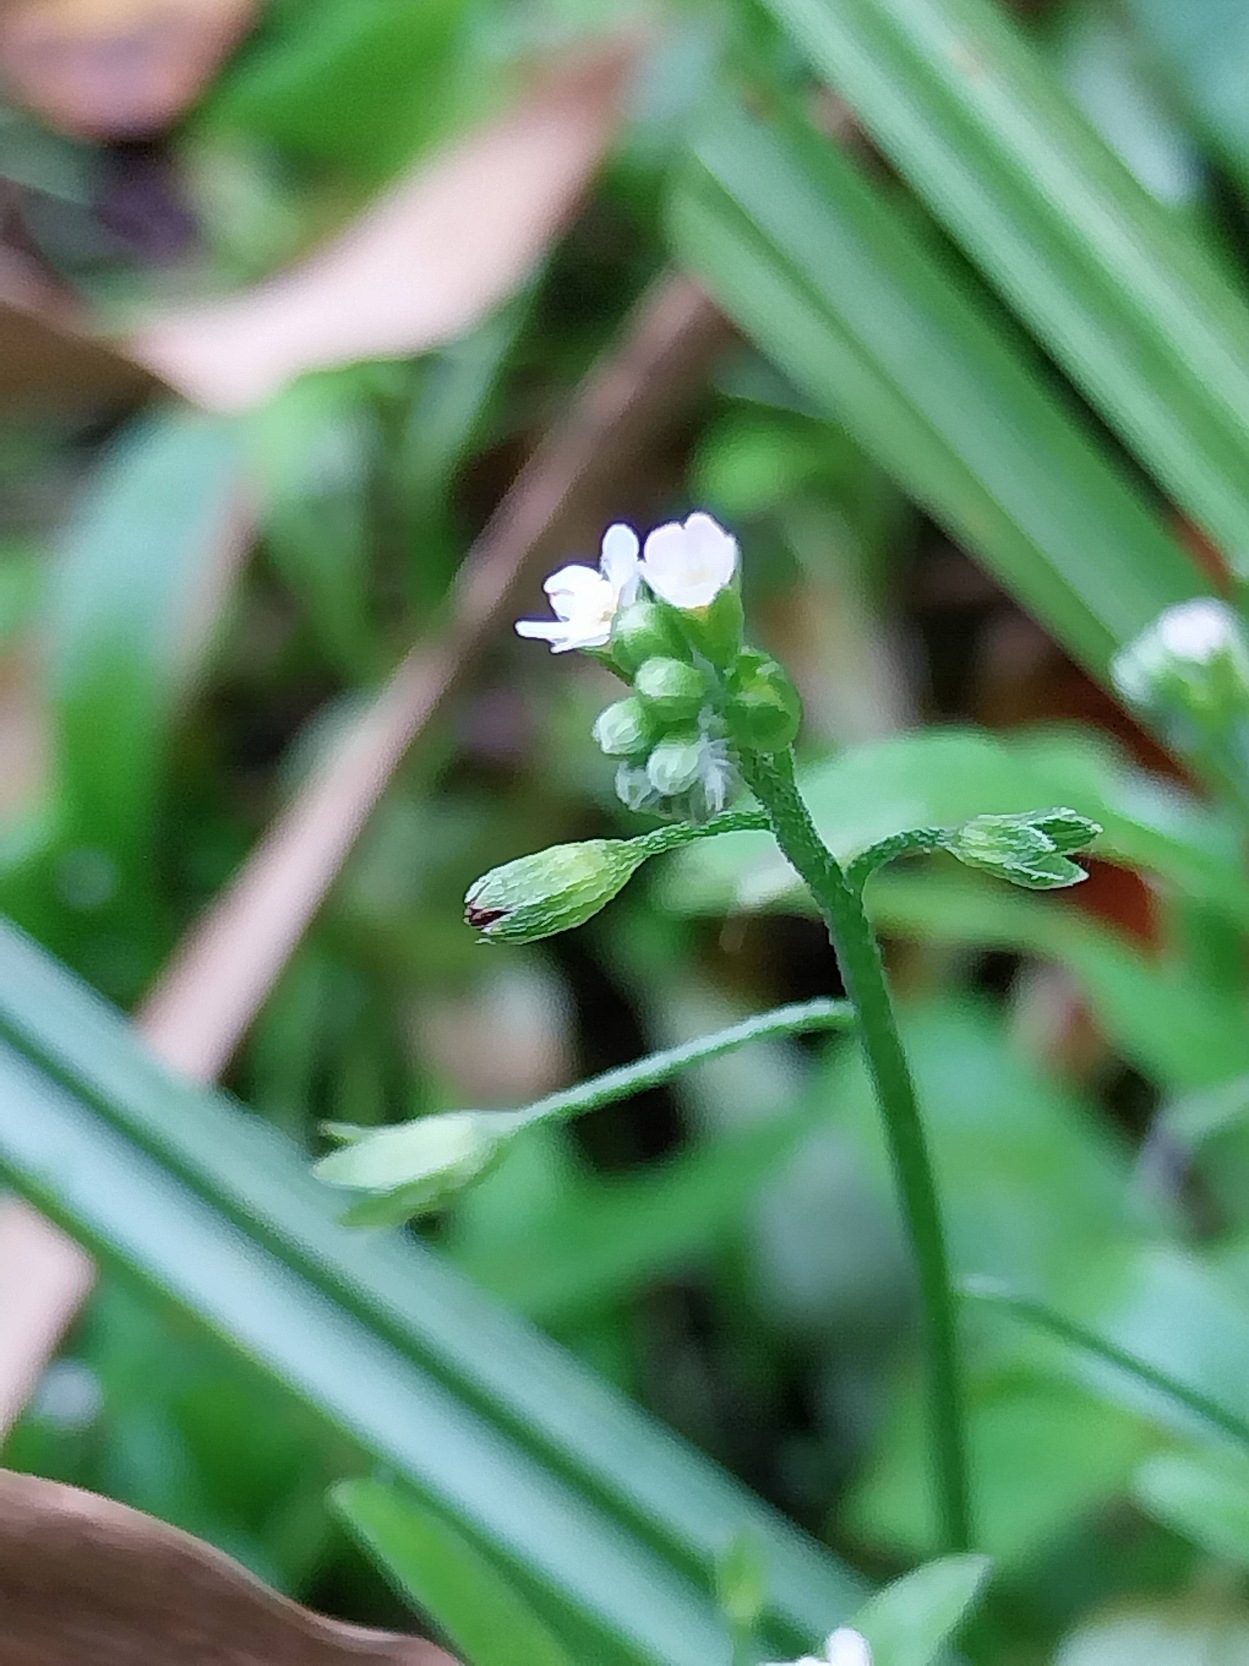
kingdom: Plantae
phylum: Tracheophyta
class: Magnoliopsida
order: Boraginales
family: Boraginaceae
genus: Myosotis
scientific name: Myosotis laxa
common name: Sump-forglemmigej
